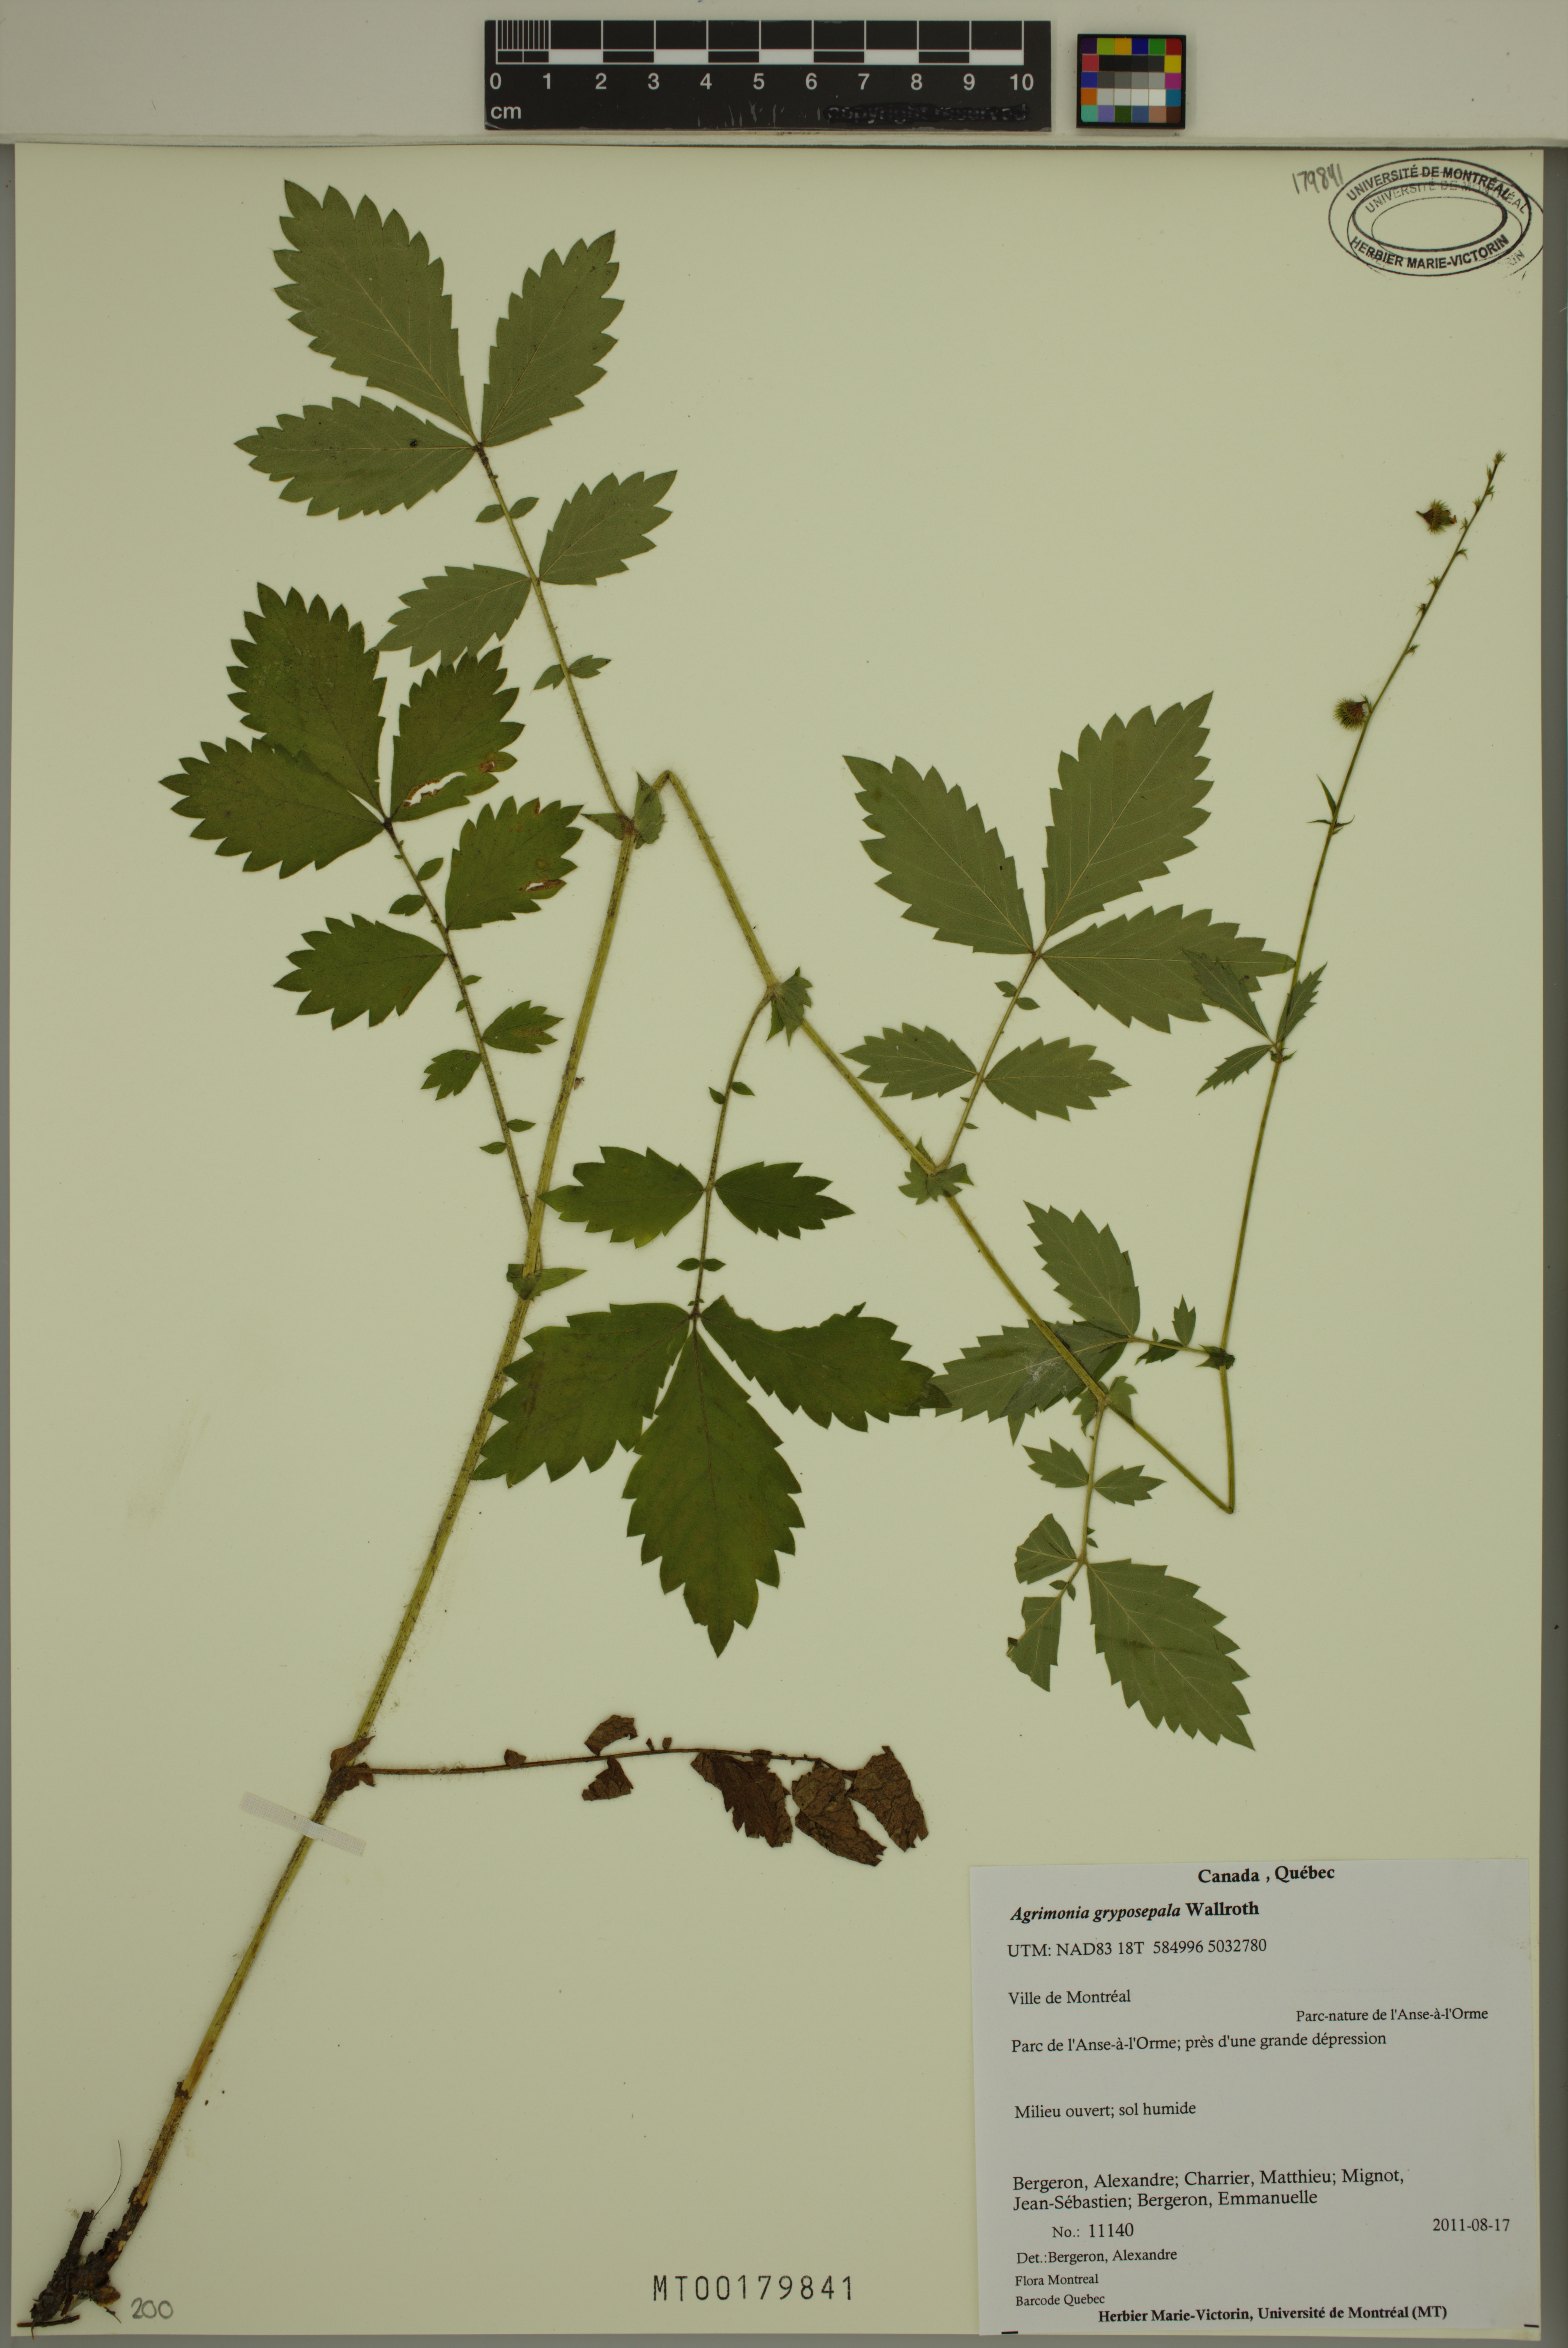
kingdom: Plantae
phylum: Tracheophyta
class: Magnoliopsida
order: Rosales
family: Rosaceae
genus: Agrimonia
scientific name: Agrimonia gryposepala
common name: Common agrimony
